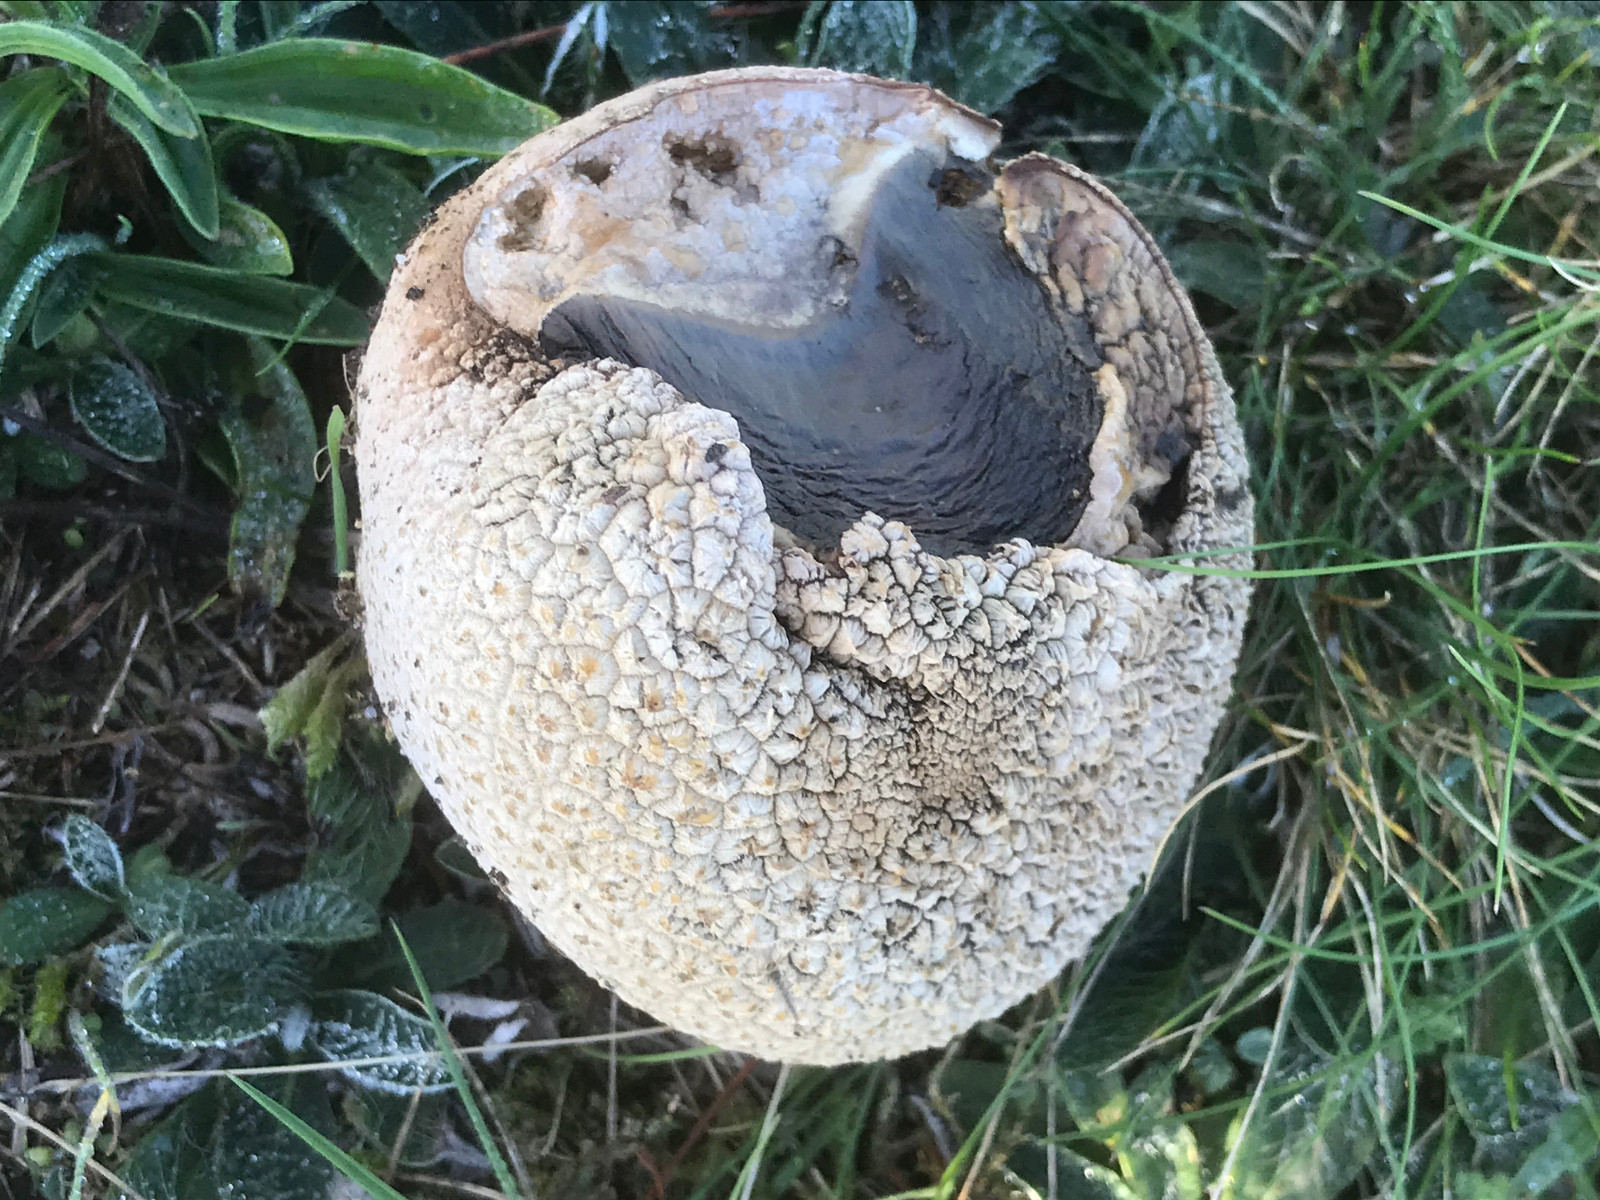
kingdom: Fungi
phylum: Basidiomycota
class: Agaricomycetes
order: Agaricales
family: Lycoperdaceae
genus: Bovistella
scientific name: Bovistella utriformis
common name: skællet støvbold
